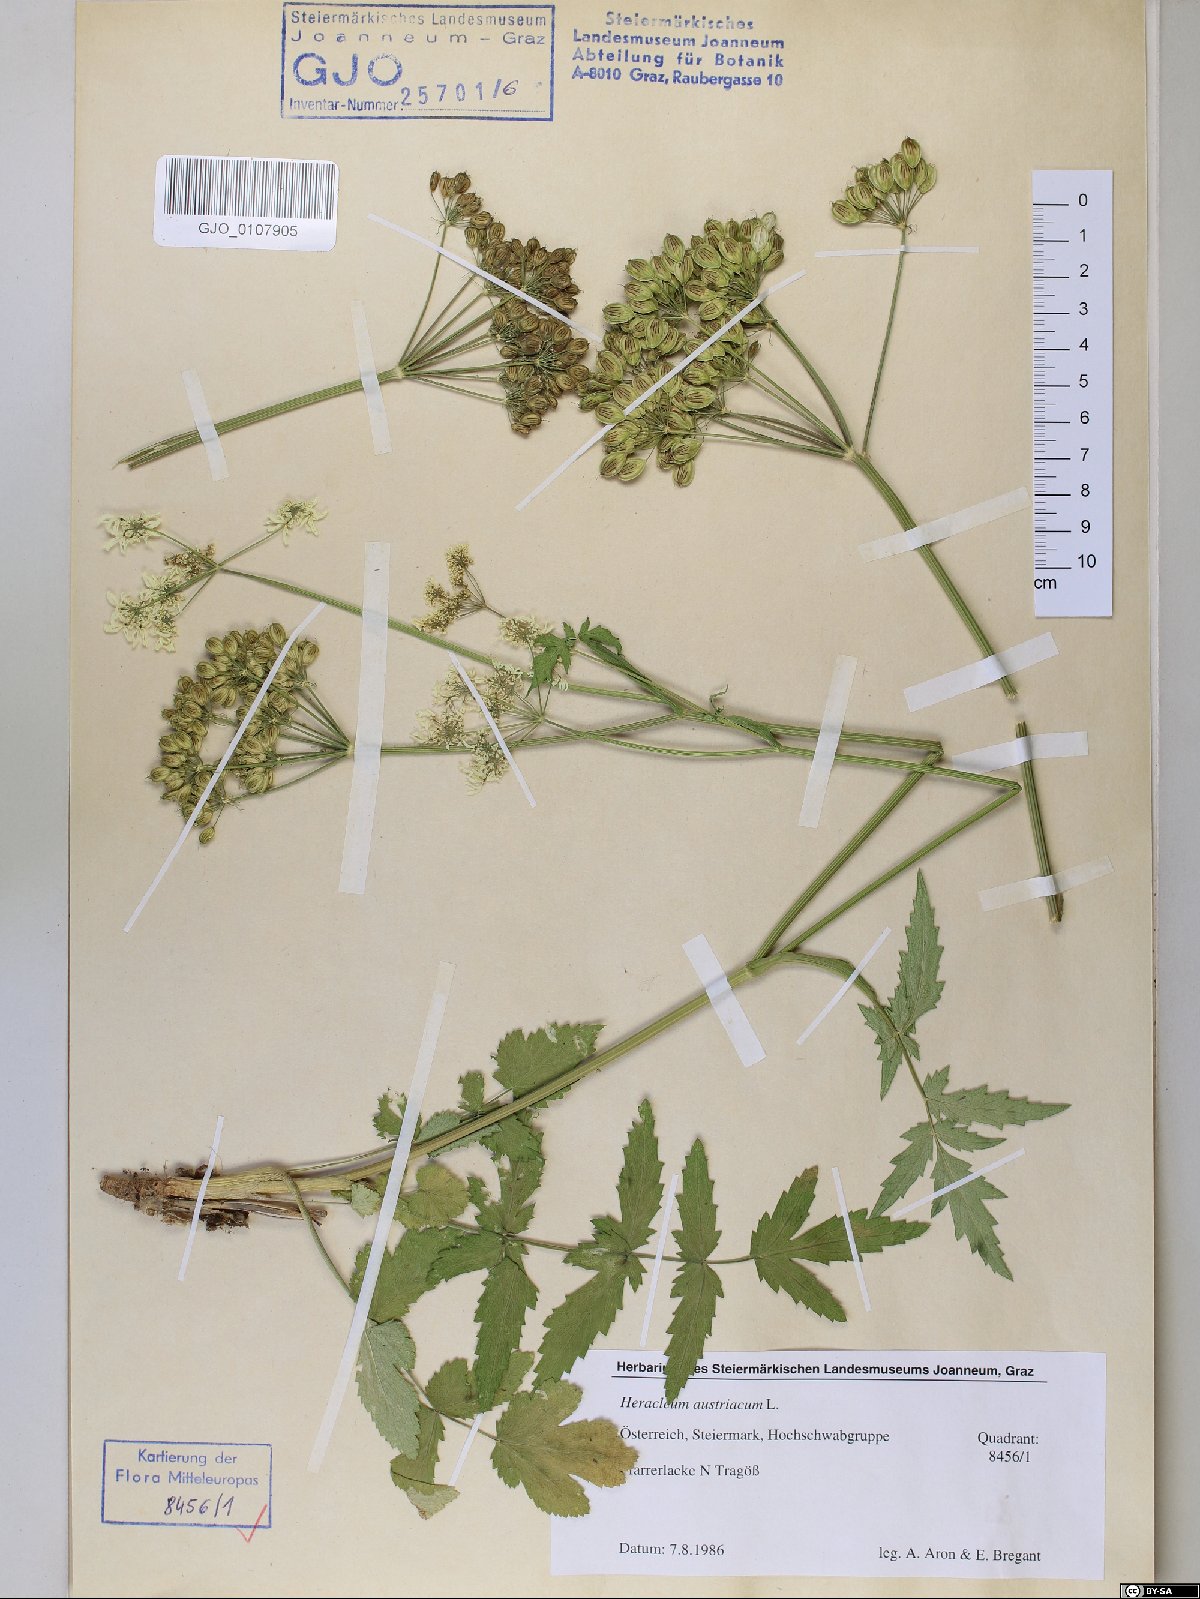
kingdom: Plantae
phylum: Tracheophyta
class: Magnoliopsida
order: Apiales
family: Apiaceae
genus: Heracleum
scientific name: Heracleum austriacum
